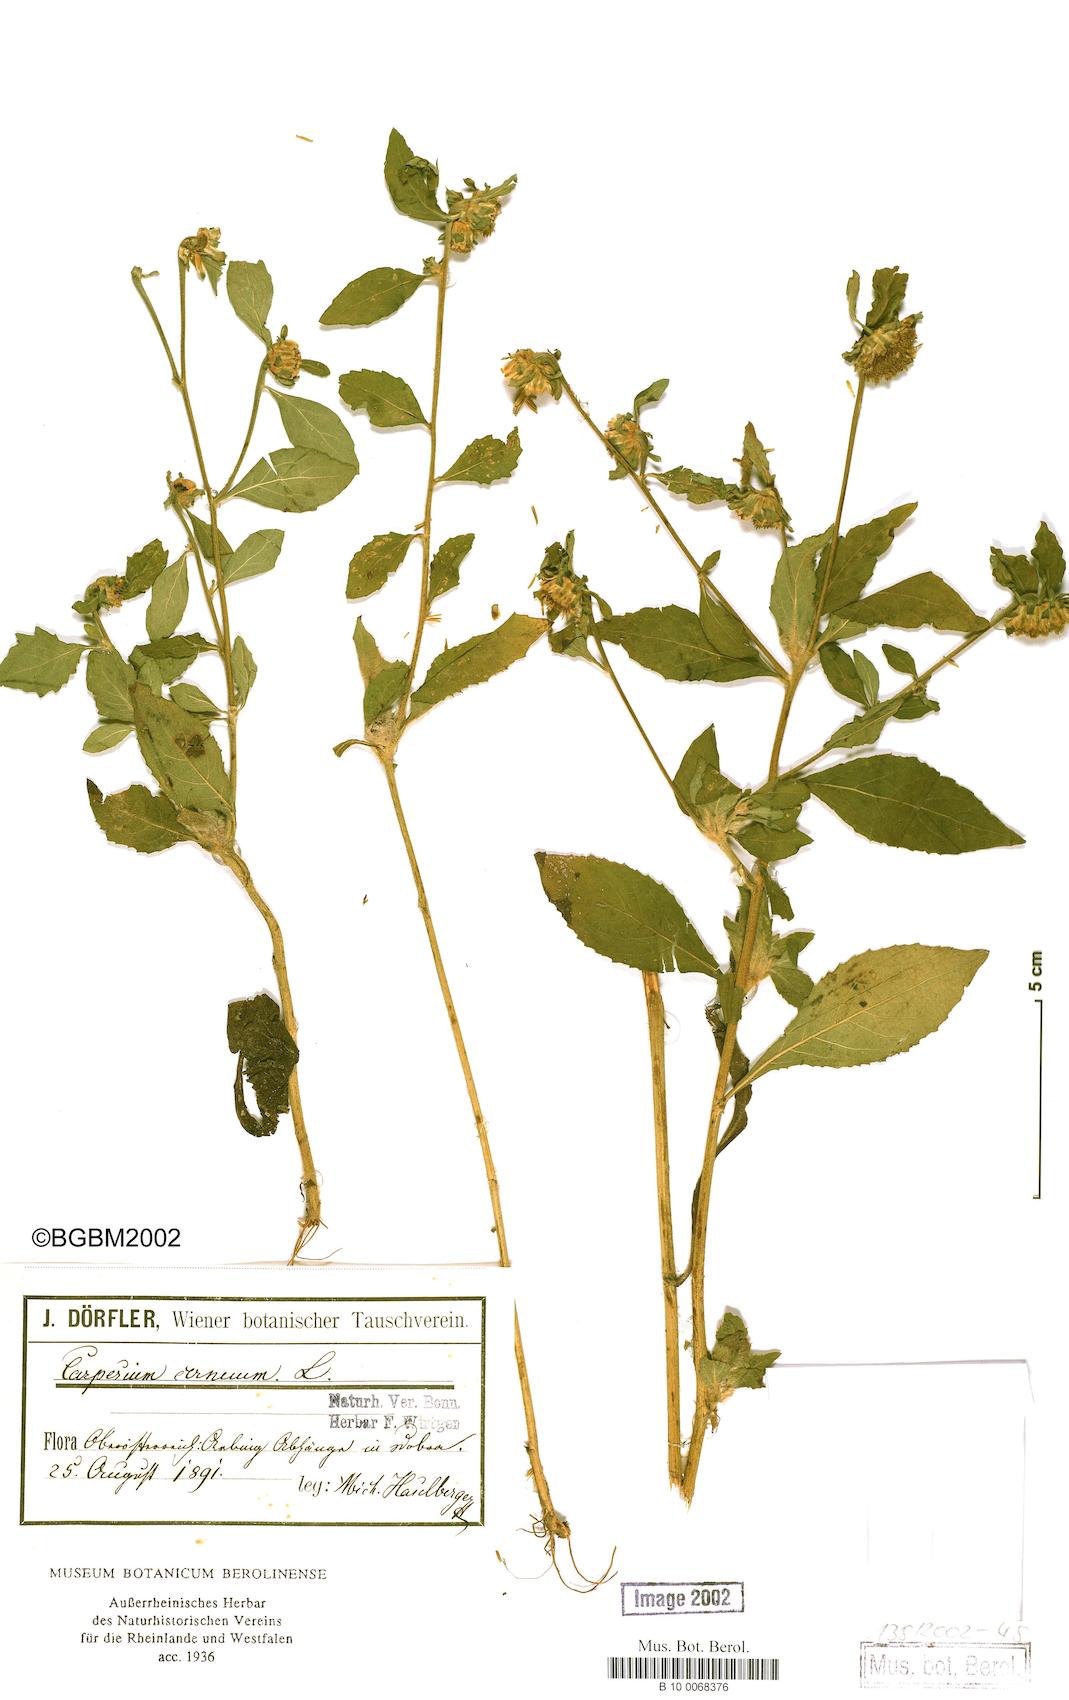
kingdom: Plantae
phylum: Tracheophyta
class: Magnoliopsida
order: Asterales
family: Asteraceae
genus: Carpesium
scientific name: Carpesium cernuum
